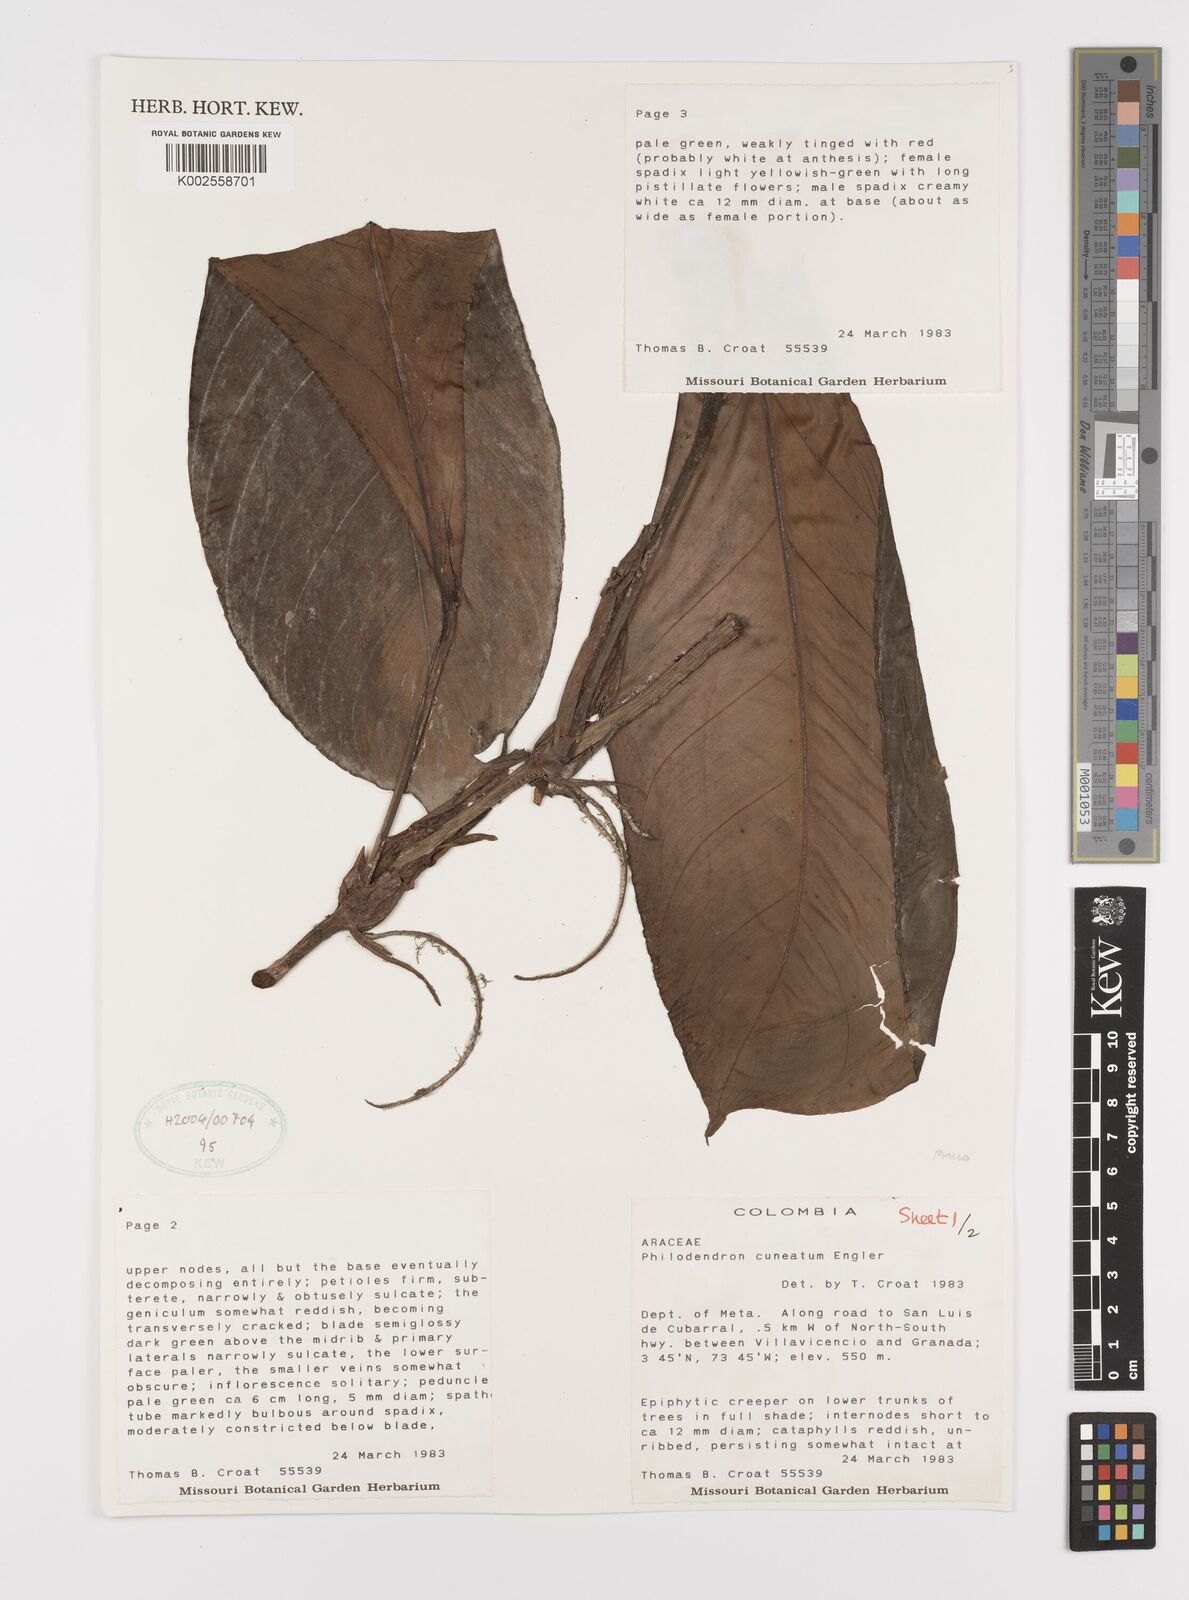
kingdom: Plantae
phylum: Tracheophyta
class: Liliopsida
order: Alismatales
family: Araceae
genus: Philodendron
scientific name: Philodendron cuneatum
